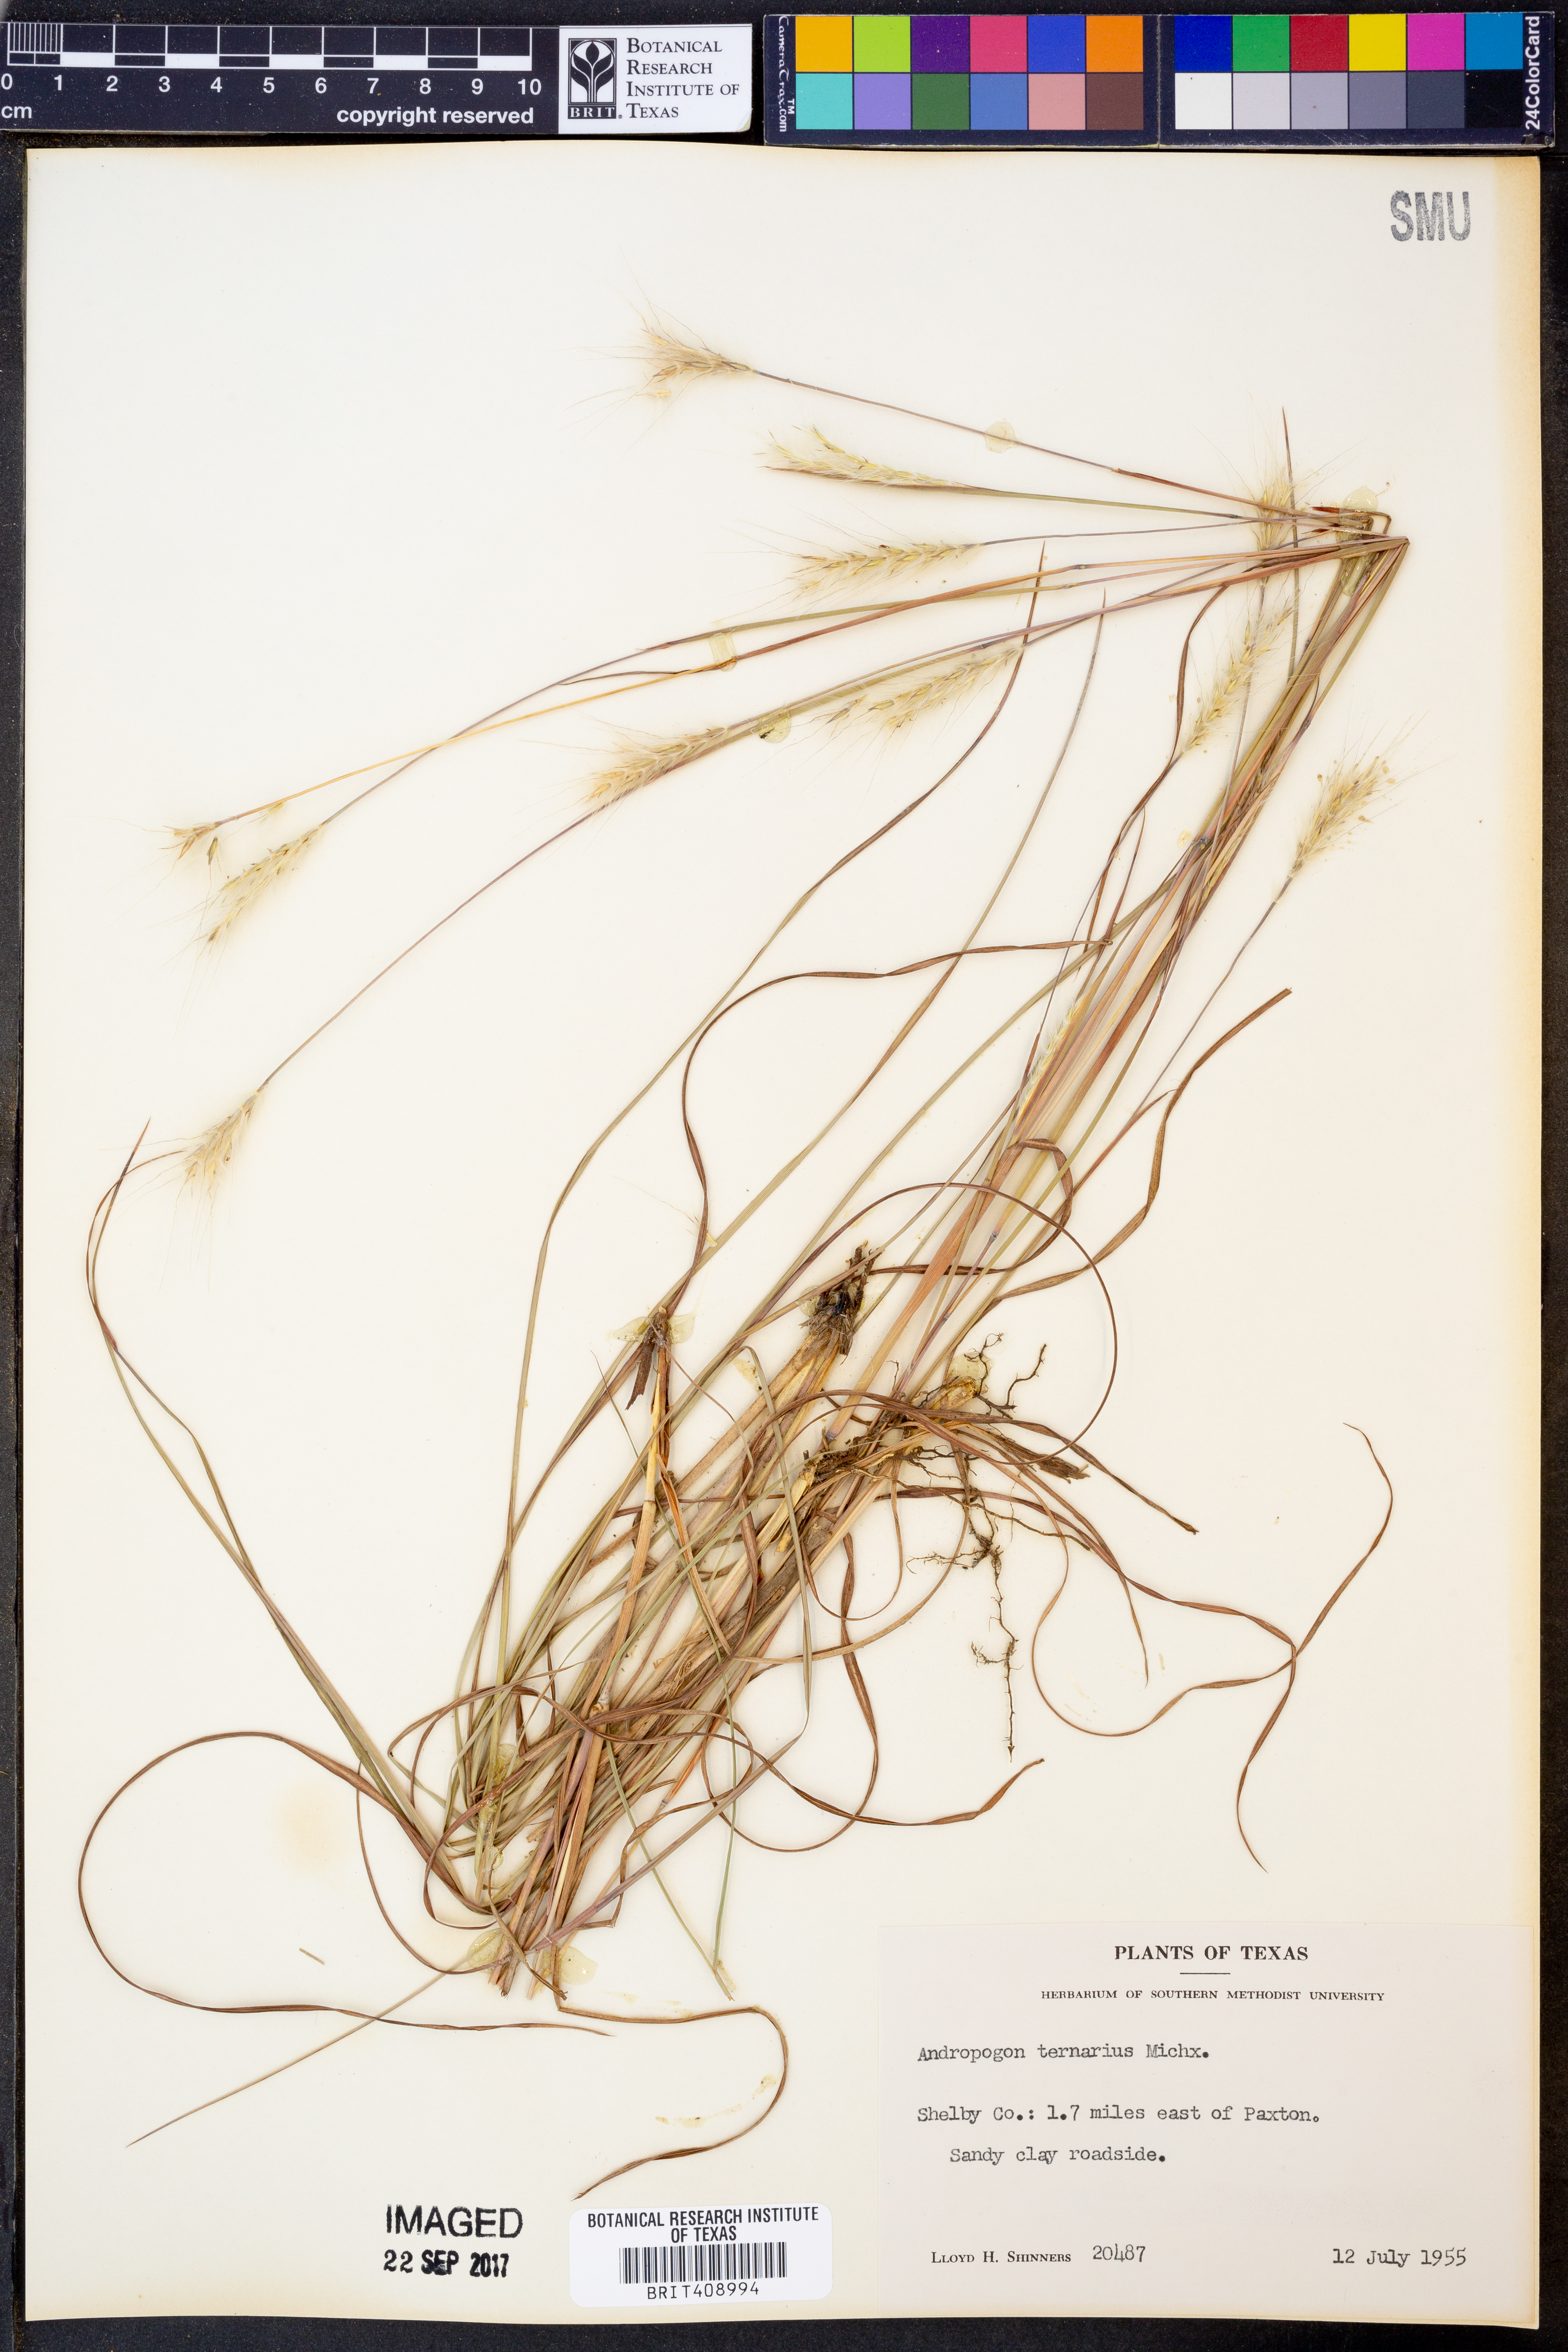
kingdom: Plantae
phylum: Tracheophyta
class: Liliopsida
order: Poales
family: Poaceae
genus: Andropogon
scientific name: Andropogon ternarius
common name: Split bluestem
